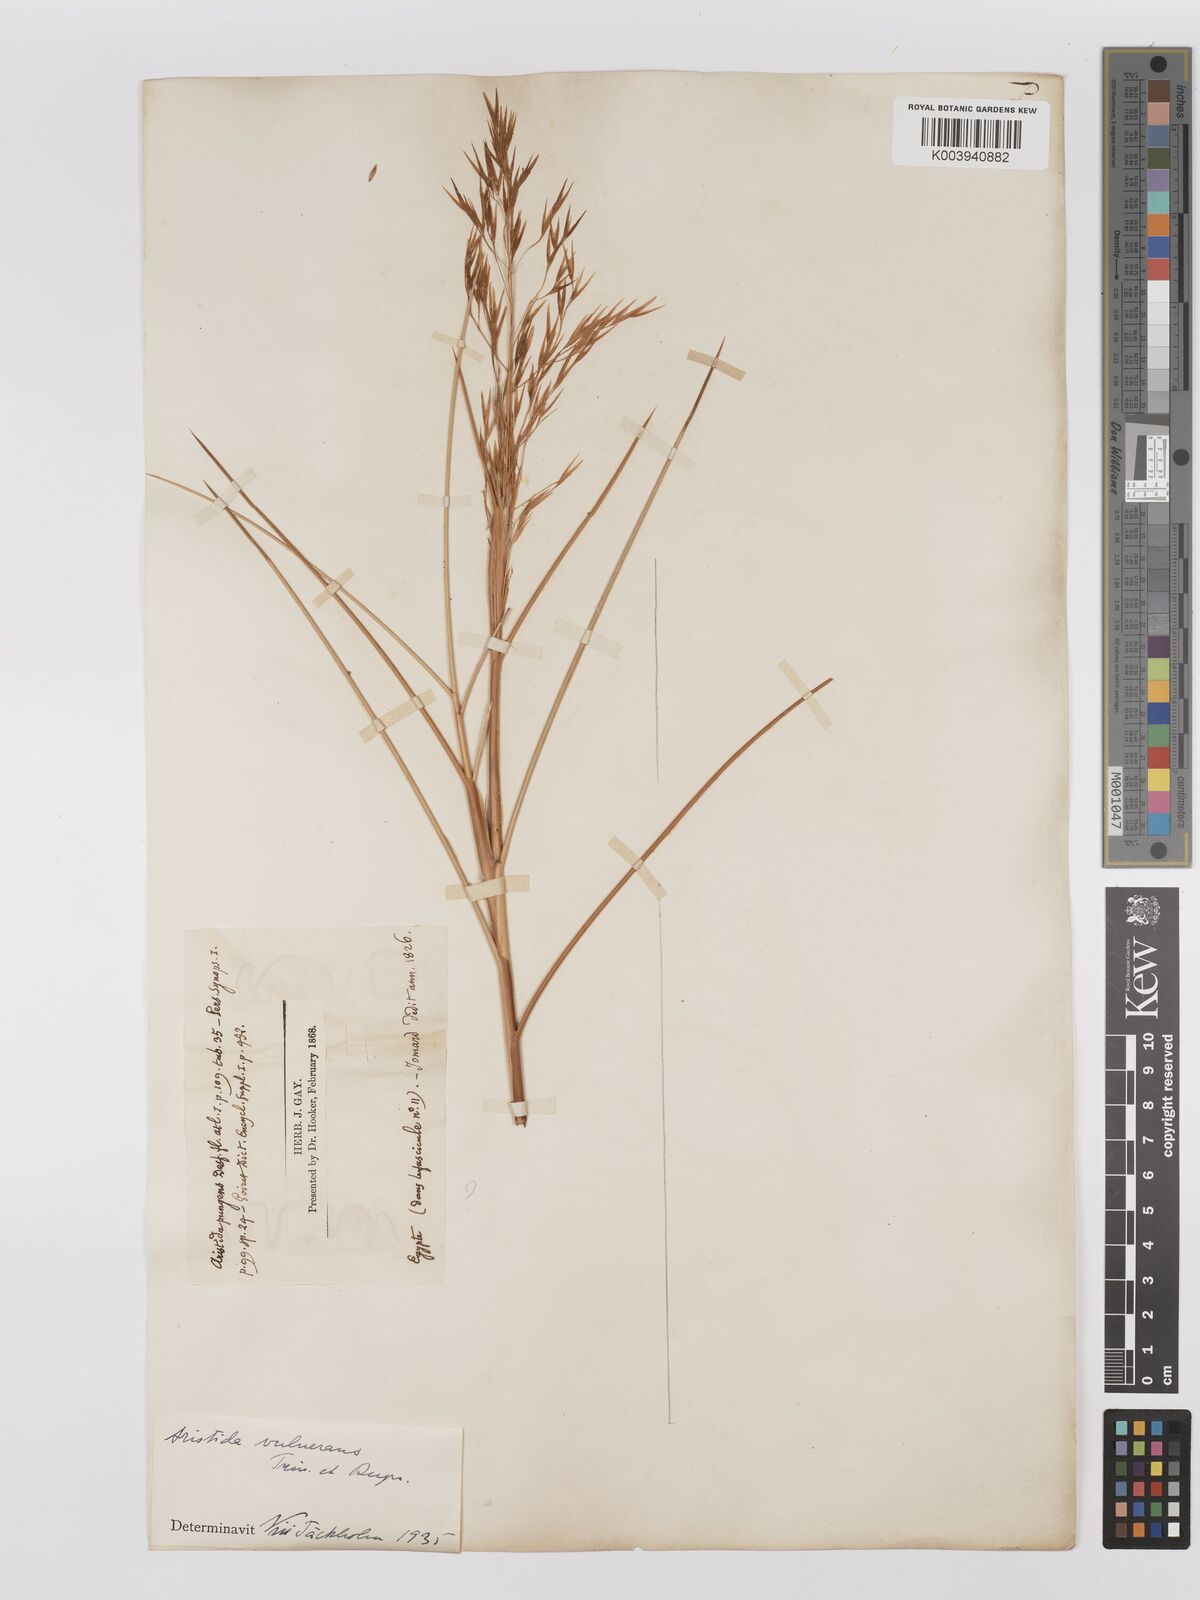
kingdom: Plantae
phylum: Tracheophyta
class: Liliopsida
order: Poales
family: Poaceae
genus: Stipagrostis
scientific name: Stipagrostis vulnerans
